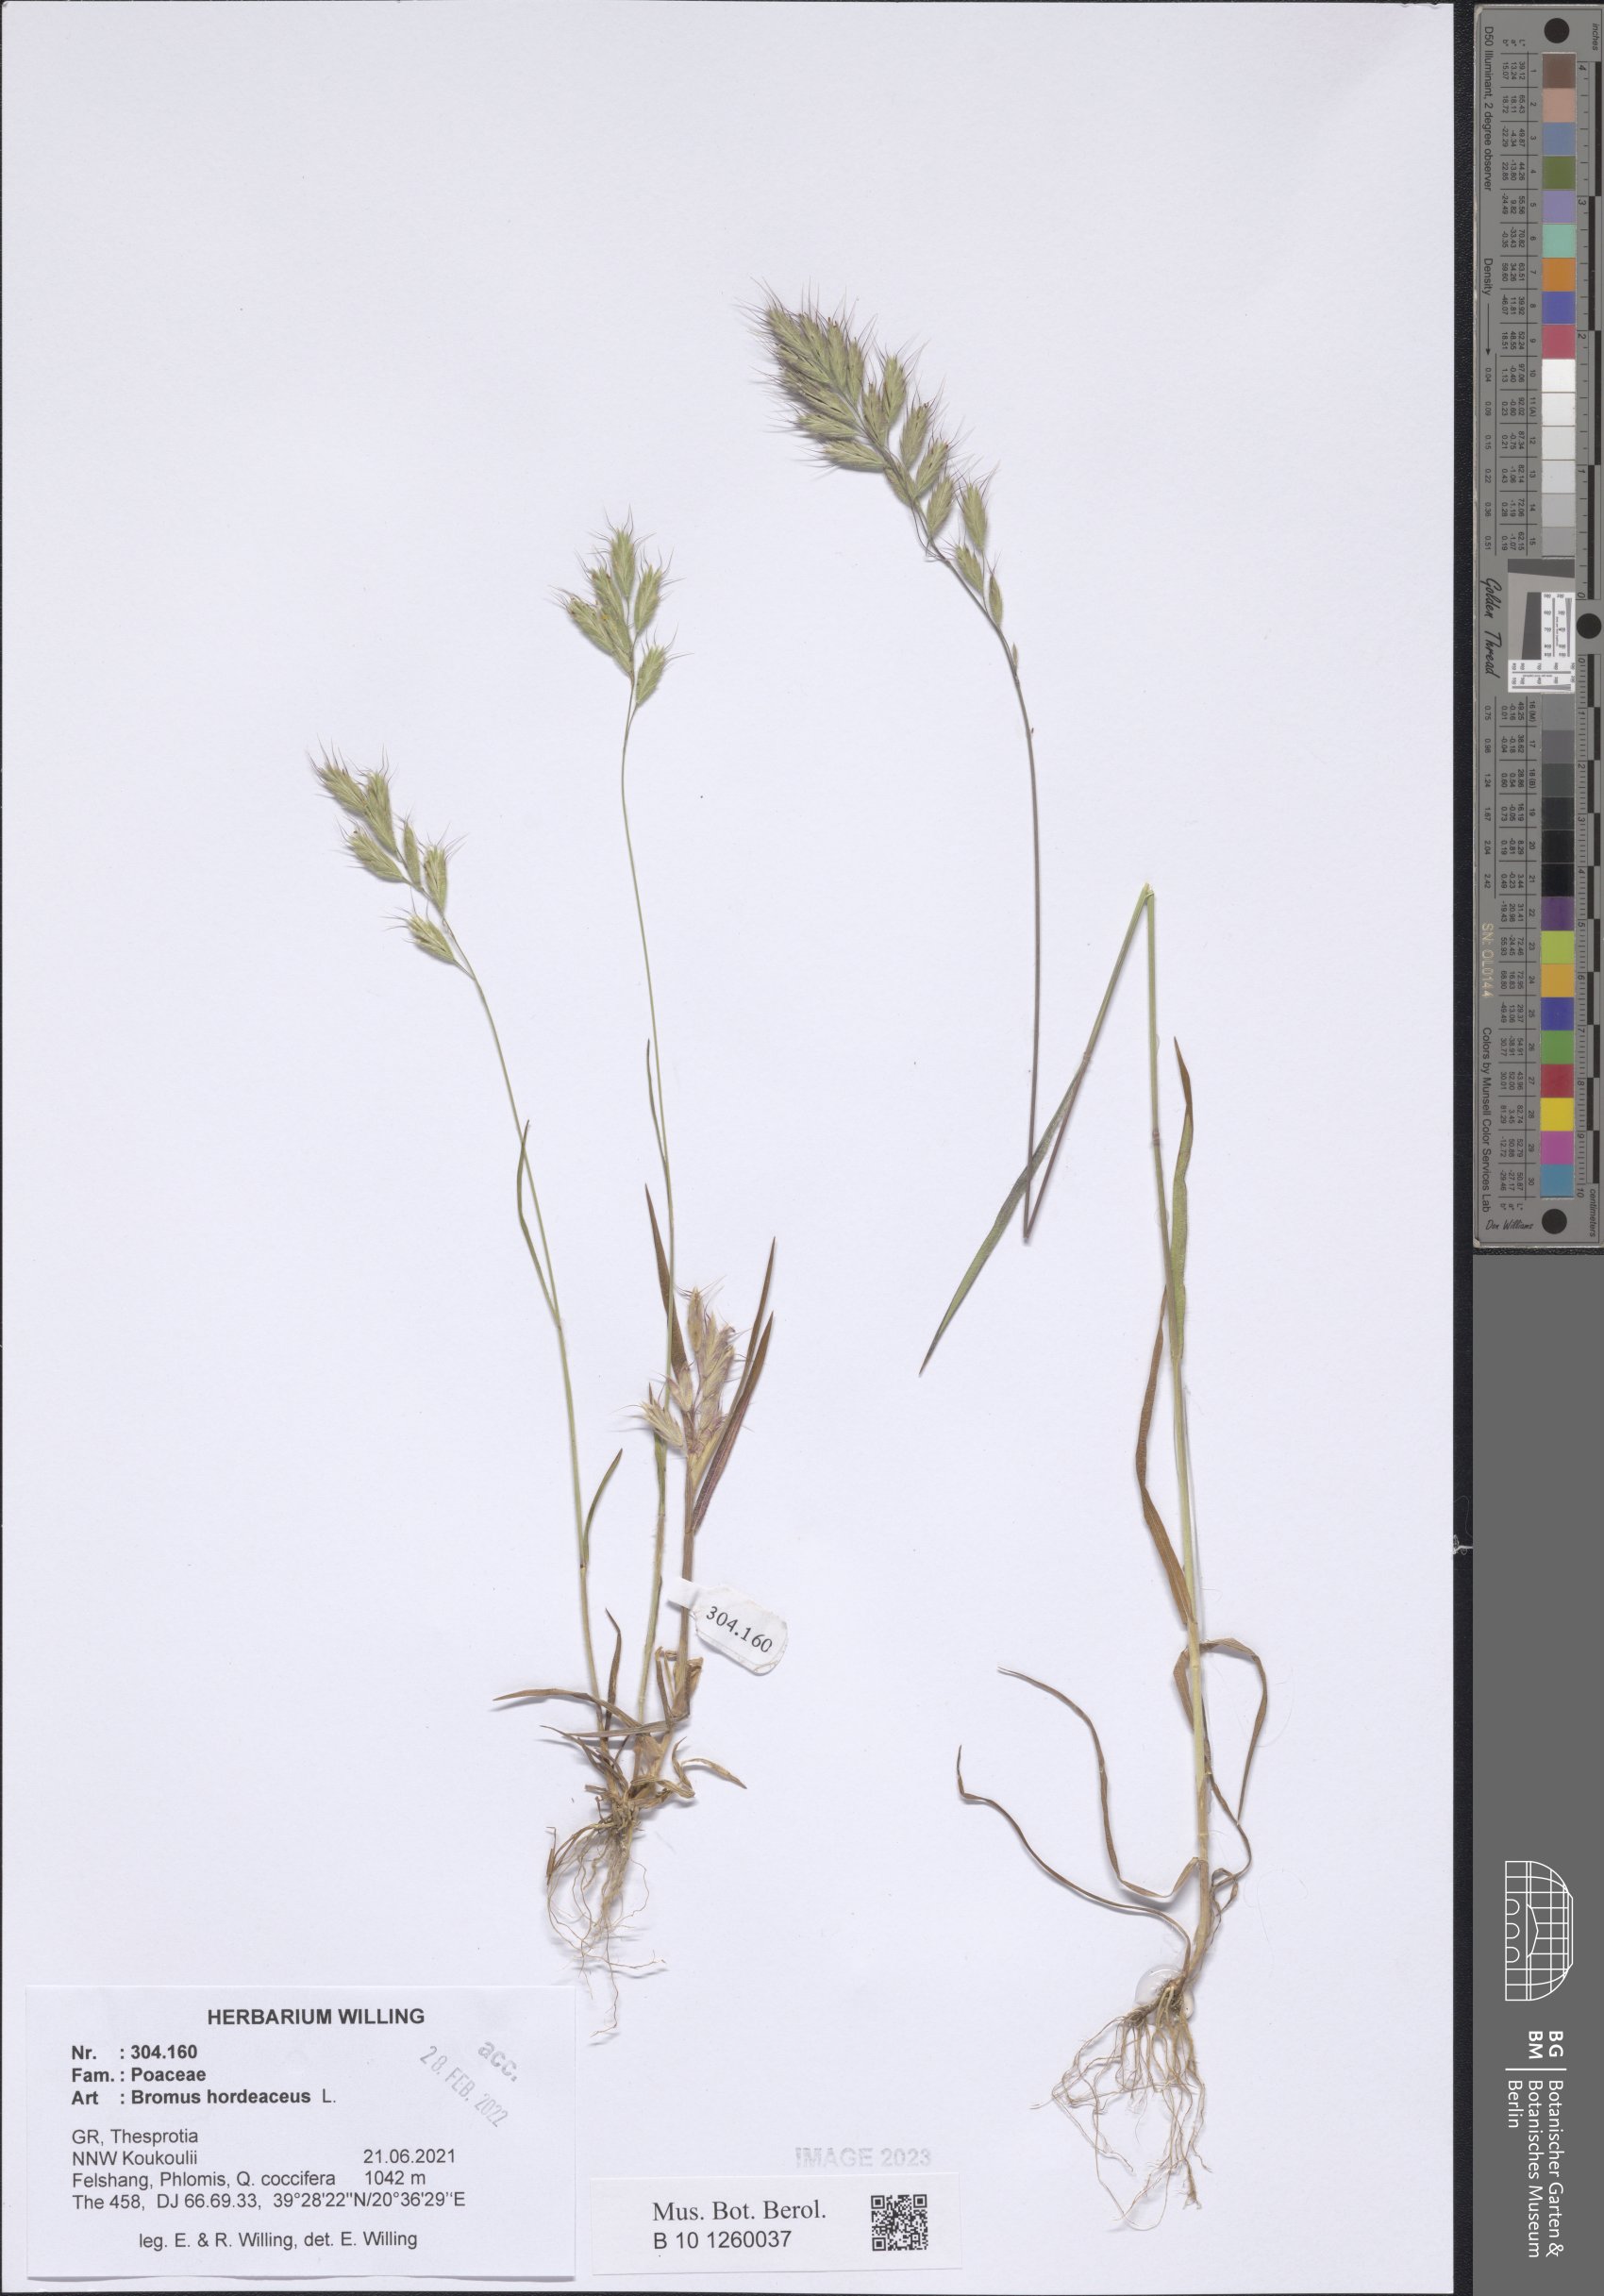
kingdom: Plantae
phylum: Tracheophyta
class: Liliopsida
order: Poales
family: Poaceae
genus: Bromus
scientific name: Bromus hordeaceus
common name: Soft brome
